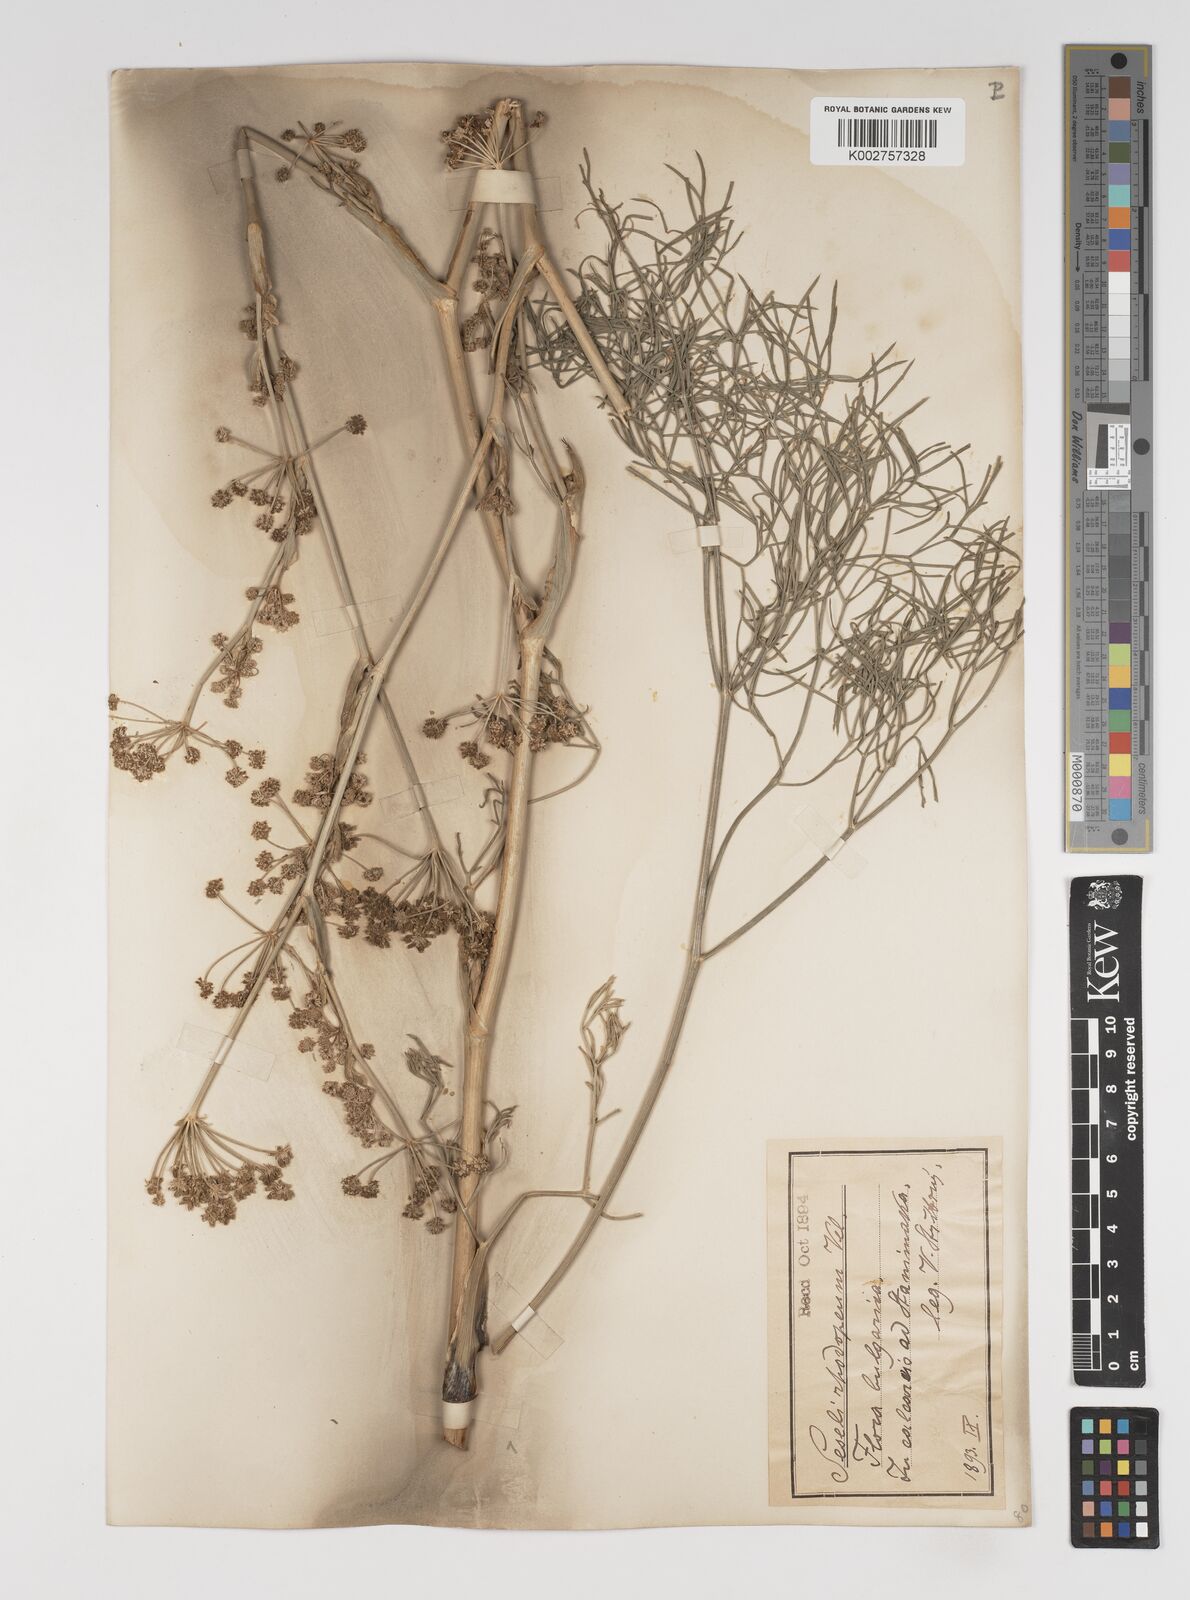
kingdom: Plantae
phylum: Tracheophyta
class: Magnoliopsida
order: Apiales
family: Apiaceae
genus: Seseli
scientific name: Seseli rhodopeum
